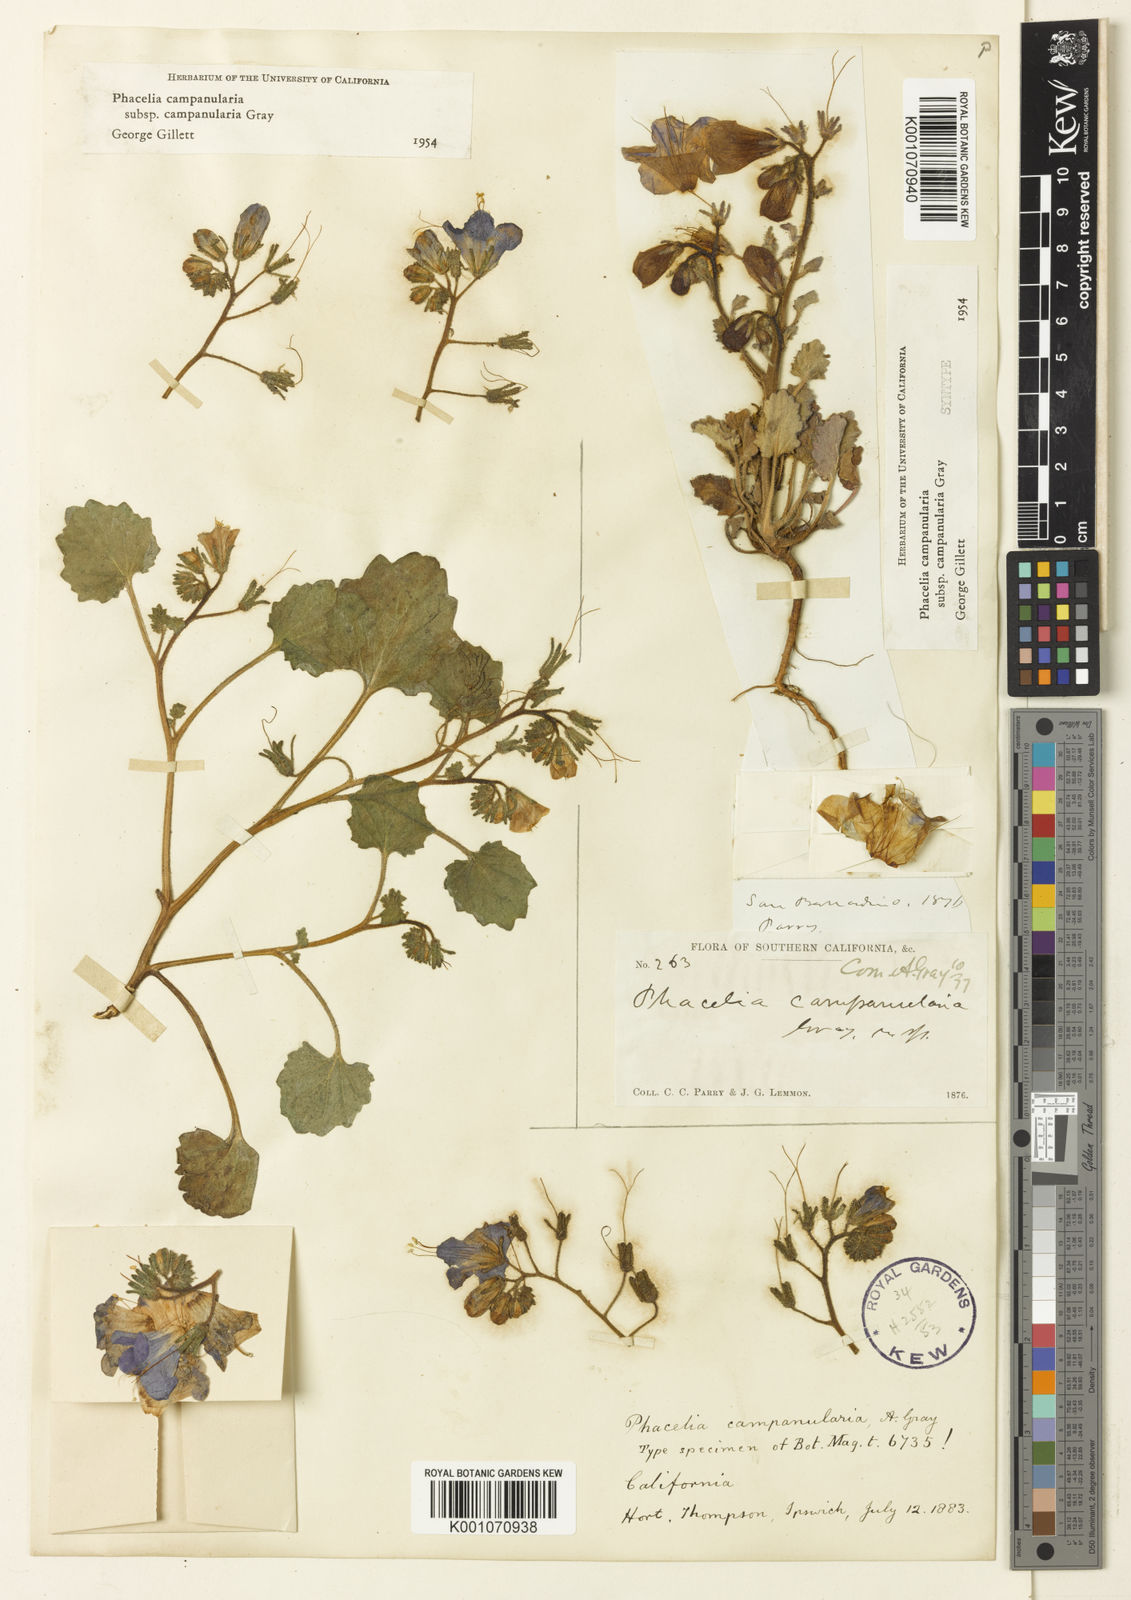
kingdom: Plantae
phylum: Tracheophyta
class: Magnoliopsida
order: Boraginales
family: Hydrophyllaceae
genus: Phacelia
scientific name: Phacelia campanularia
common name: California bluebell
